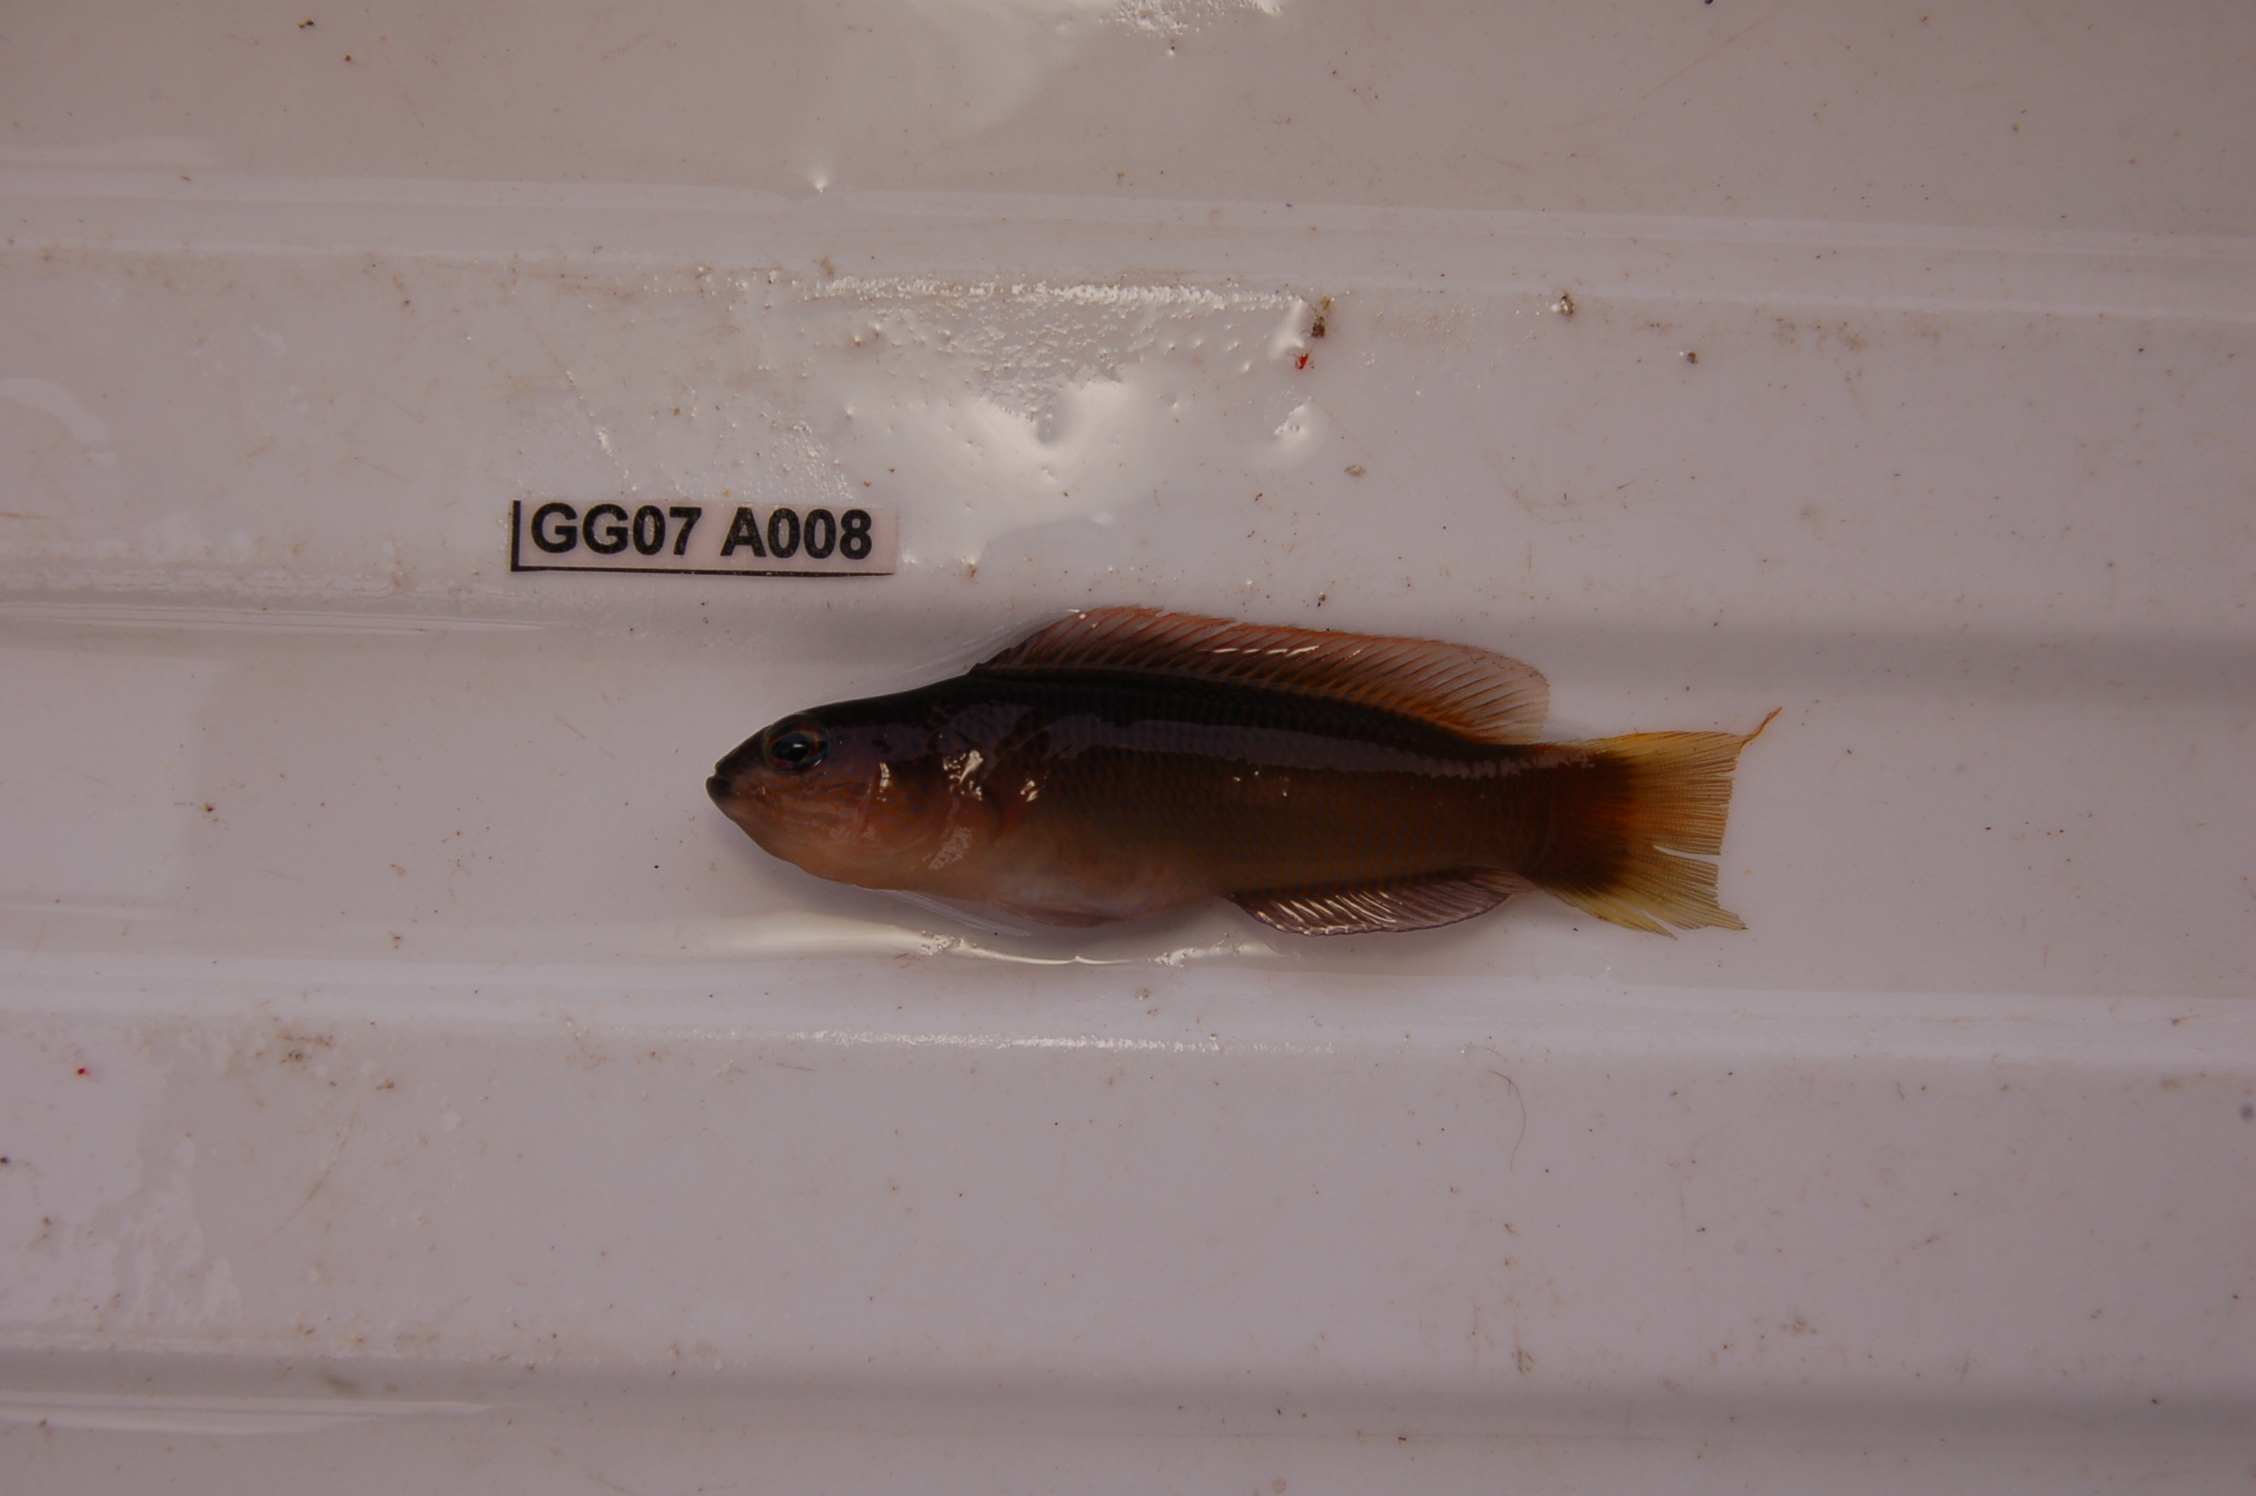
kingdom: Animalia
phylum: Chordata
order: Perciformes
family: Pseudochromidae
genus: Pseudochromis
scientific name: Pseudochromis natalensis
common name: Natal dottyback
